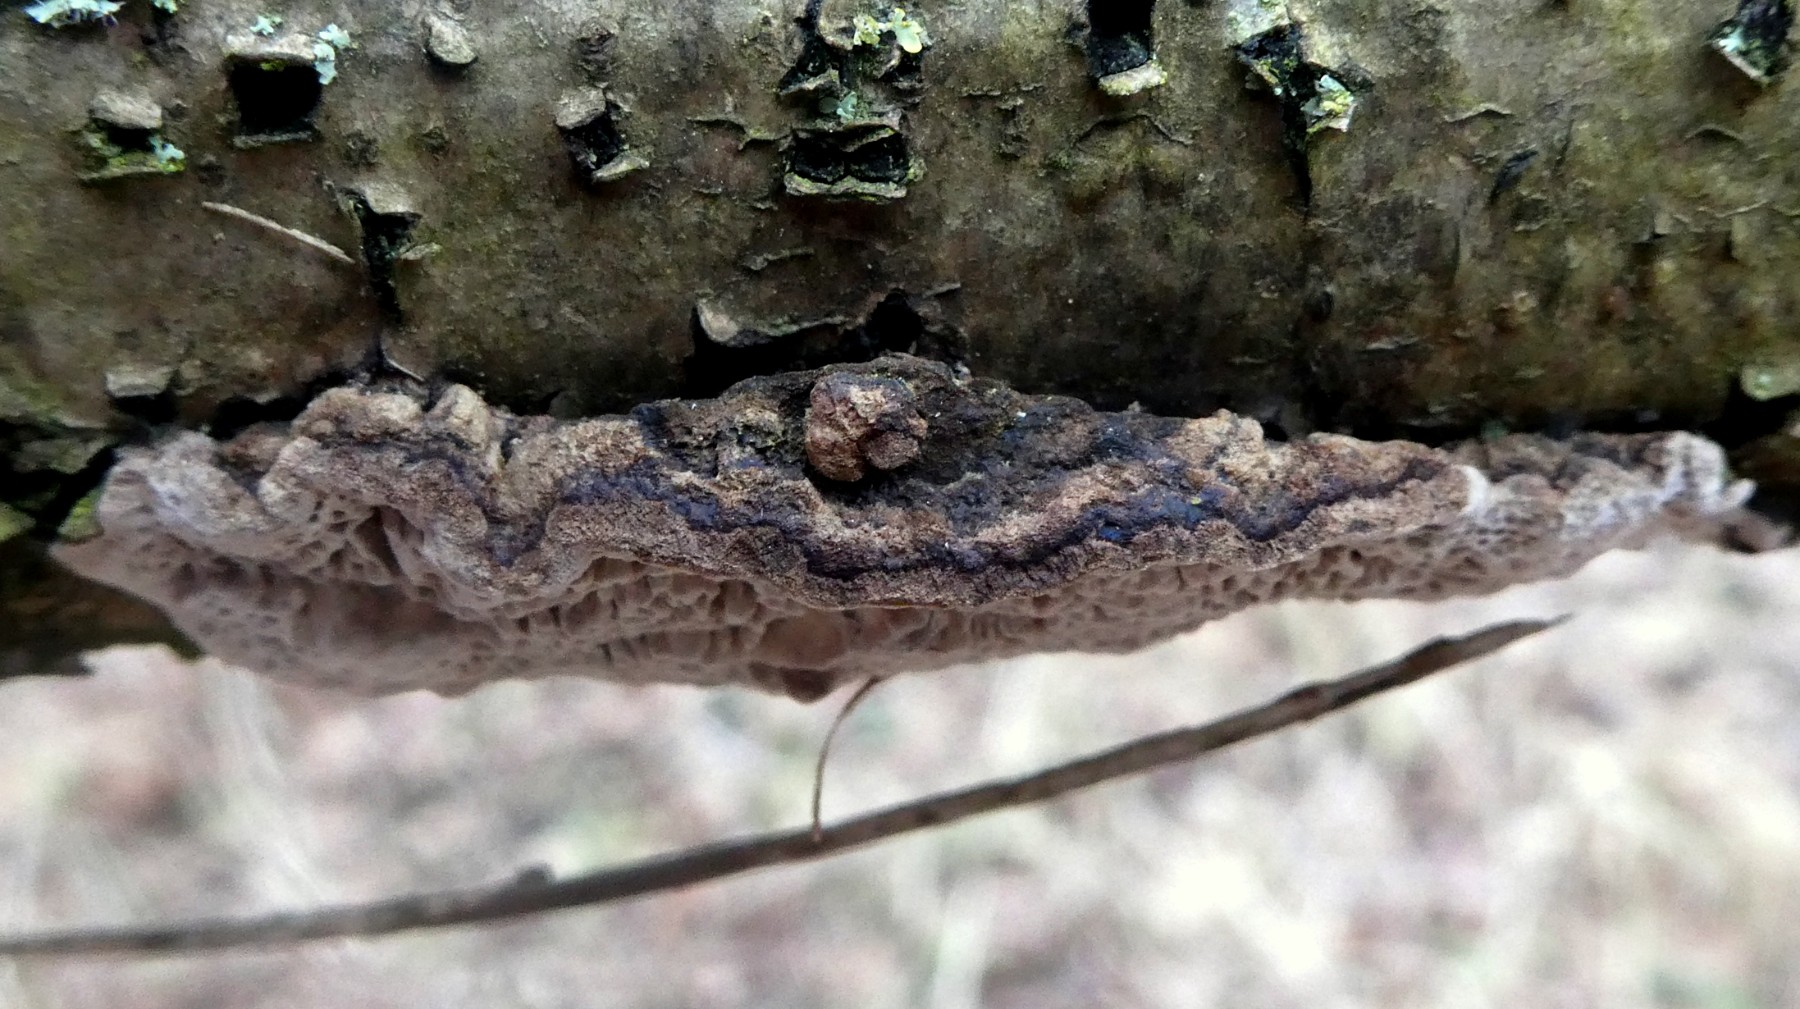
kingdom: Fungi
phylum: Basidiomycota
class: Agaricomycetes
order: Polyporales
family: Polyporaceae
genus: Podofomes
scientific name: Podofomes mollis
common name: blød begporesvamp
